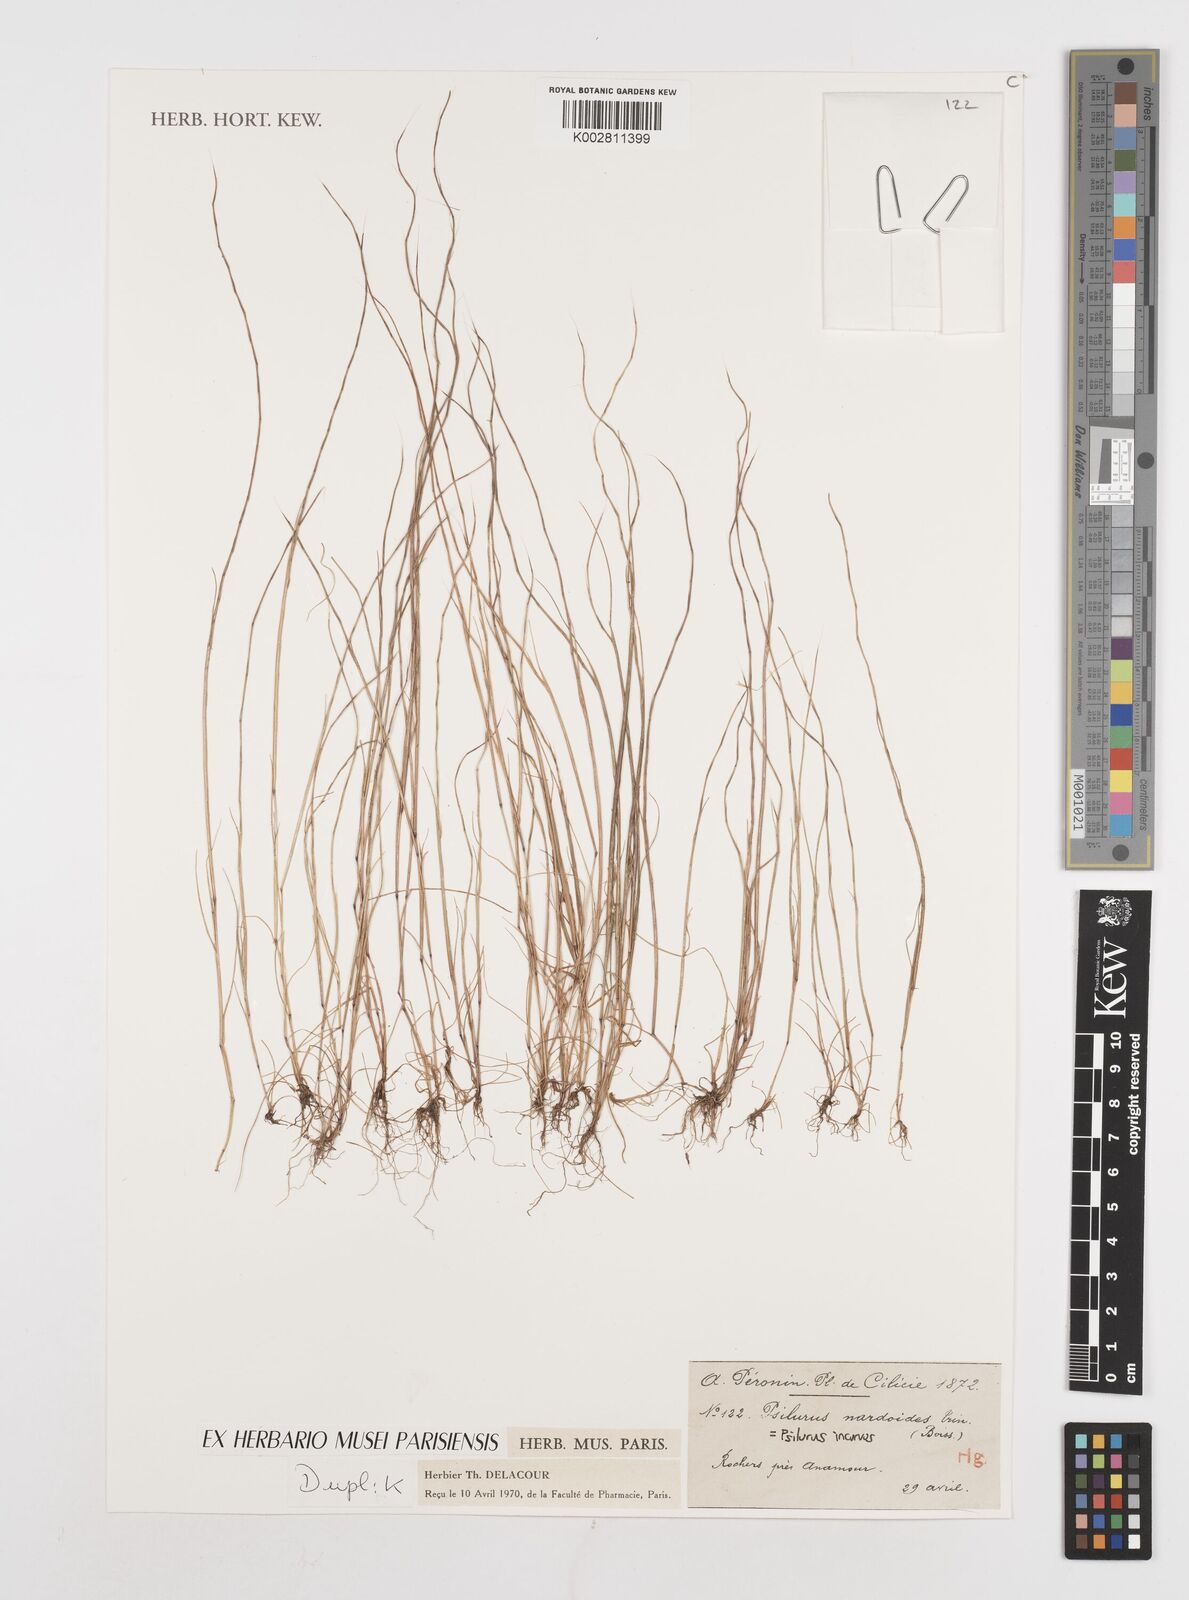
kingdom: Plantae
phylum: Tracheophyta
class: Liliopsida
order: Poales
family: Poaceae
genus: Festuca
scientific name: Festuca incurva
